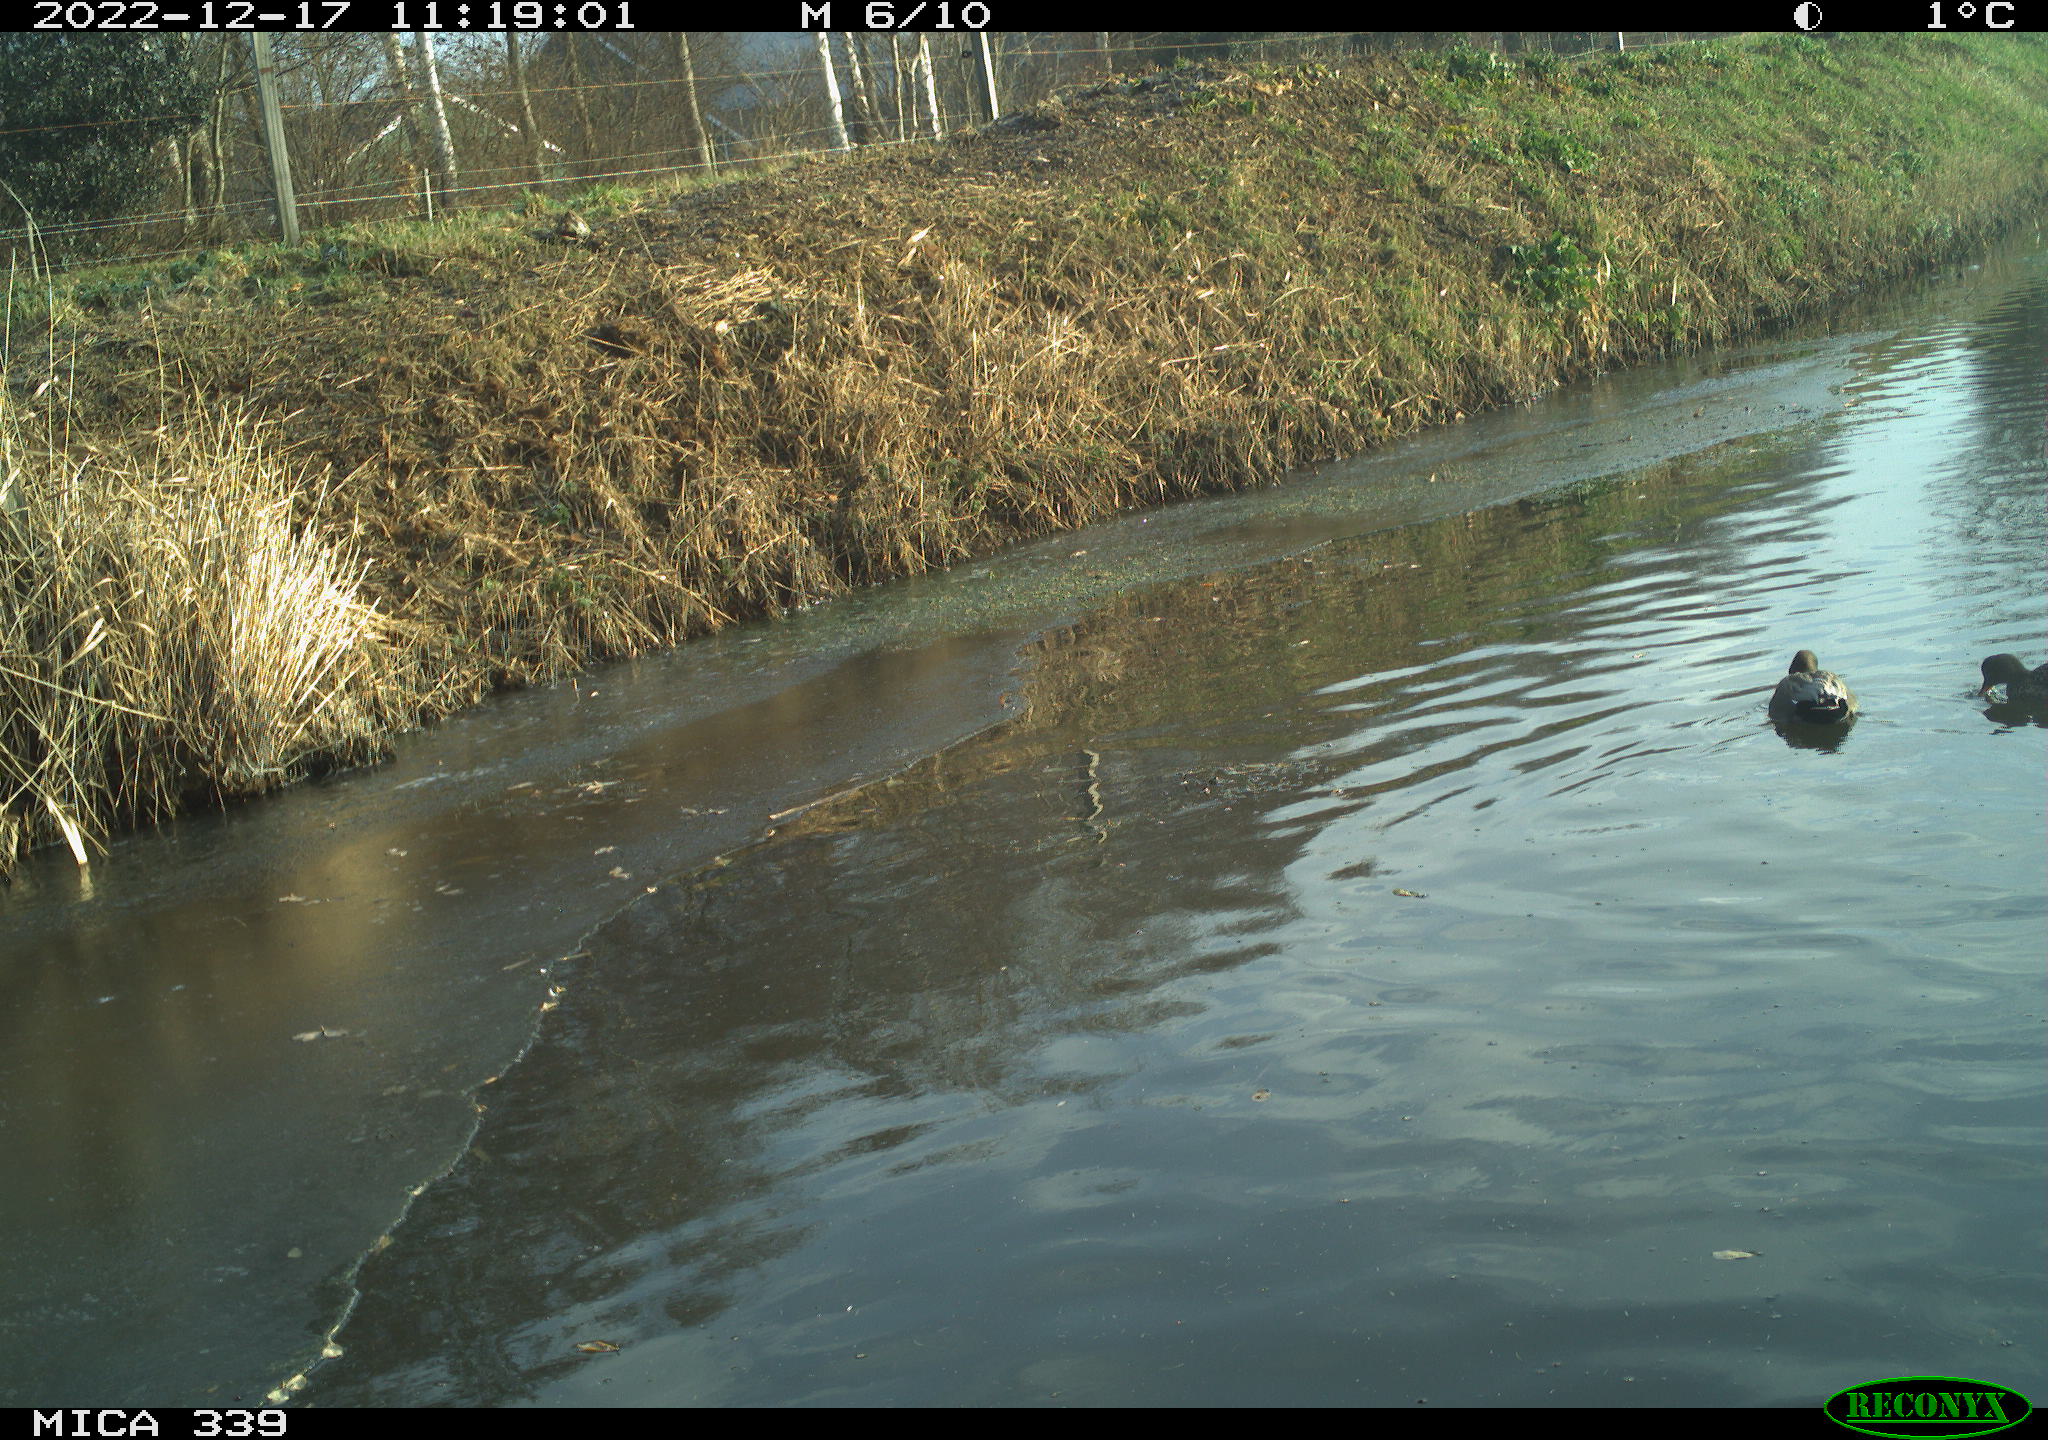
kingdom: Animalia
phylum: Chordata
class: Aves
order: Anseriformes
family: Anatidae
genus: Anas
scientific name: Anas
